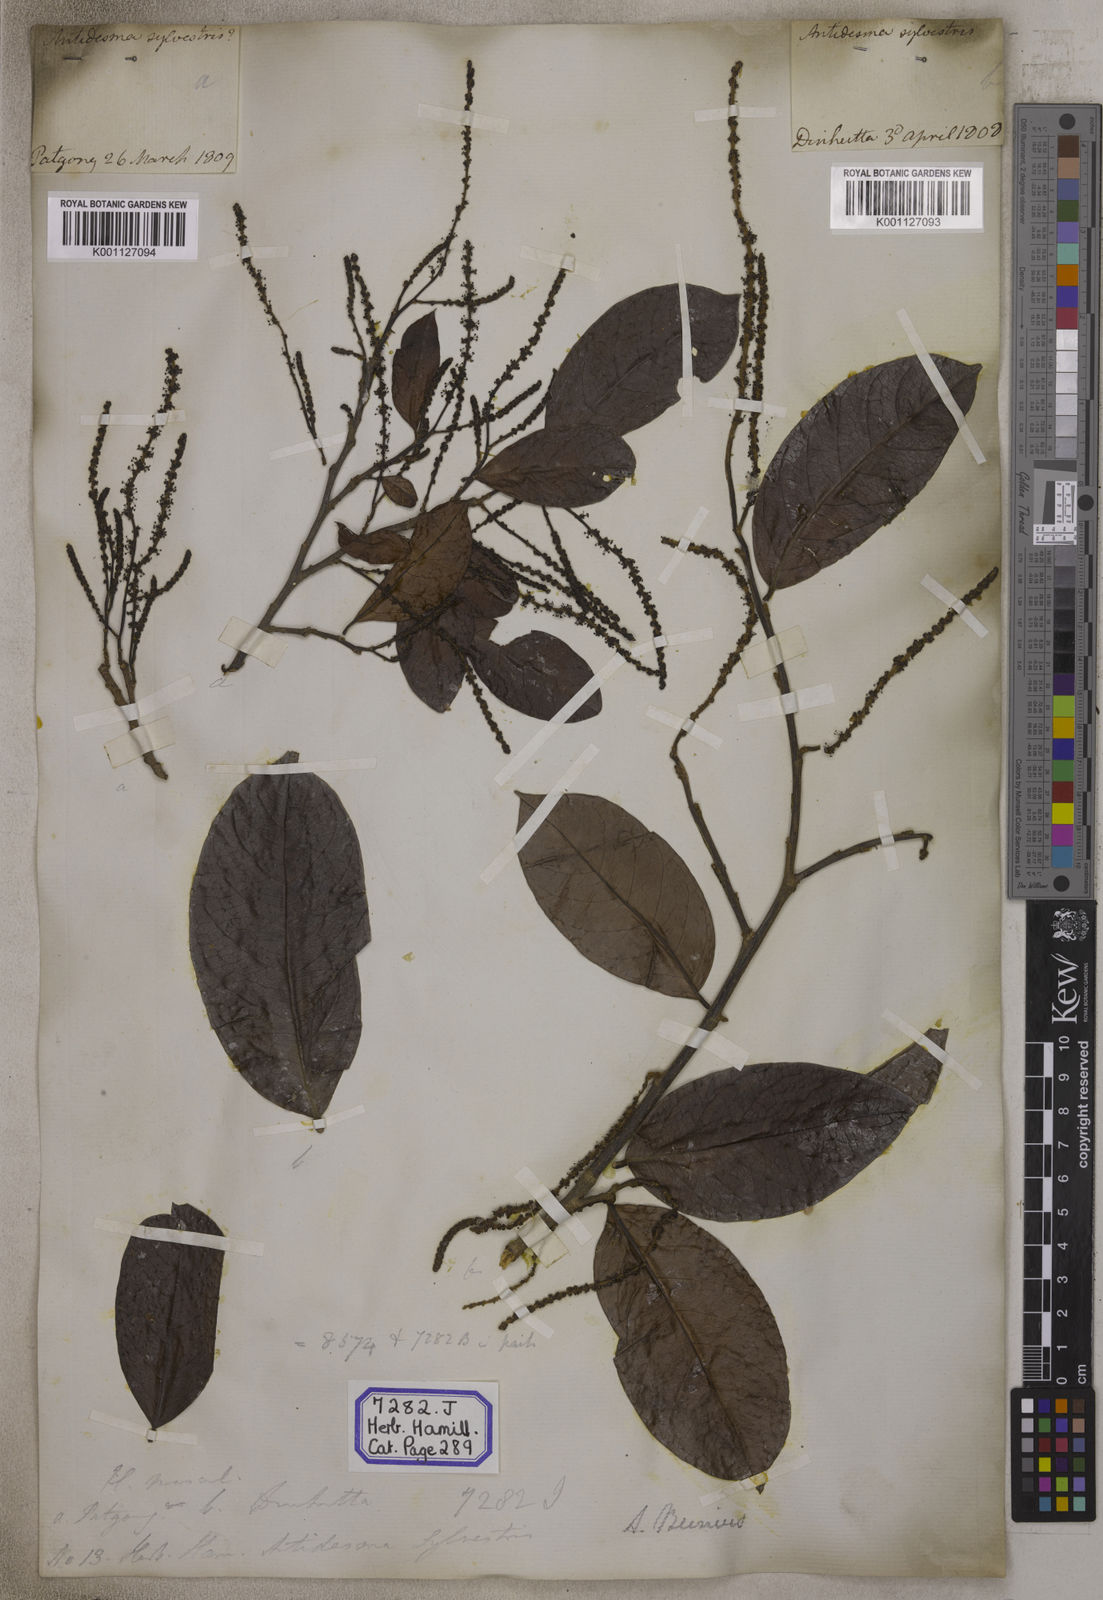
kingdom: Plantae
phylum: Tracheophyta
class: Magnoliopsida
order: Malpighiales
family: Phyllanthaceae
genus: Antidesma
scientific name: Antidesma nigricans
